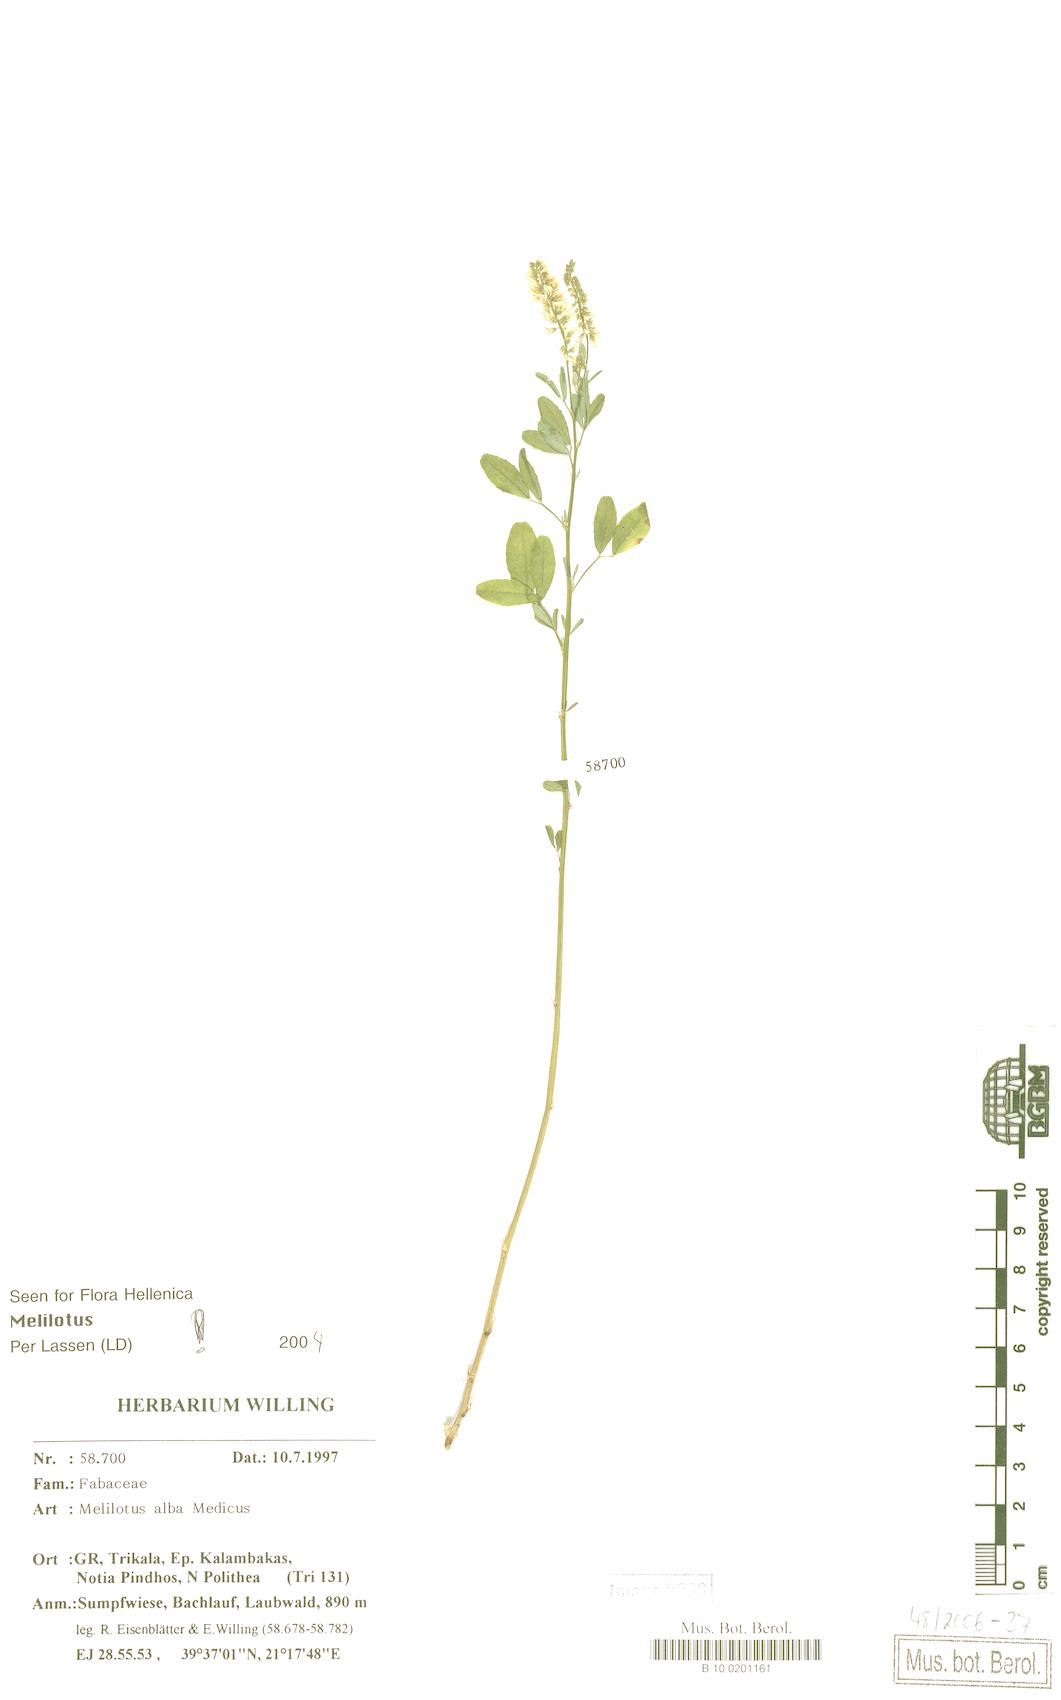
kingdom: Plantae
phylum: Tracheophyta
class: Magnoliopsida
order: Fabales
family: Fabaceae
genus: Melilotus
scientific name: Melilotus albus
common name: White melilot
